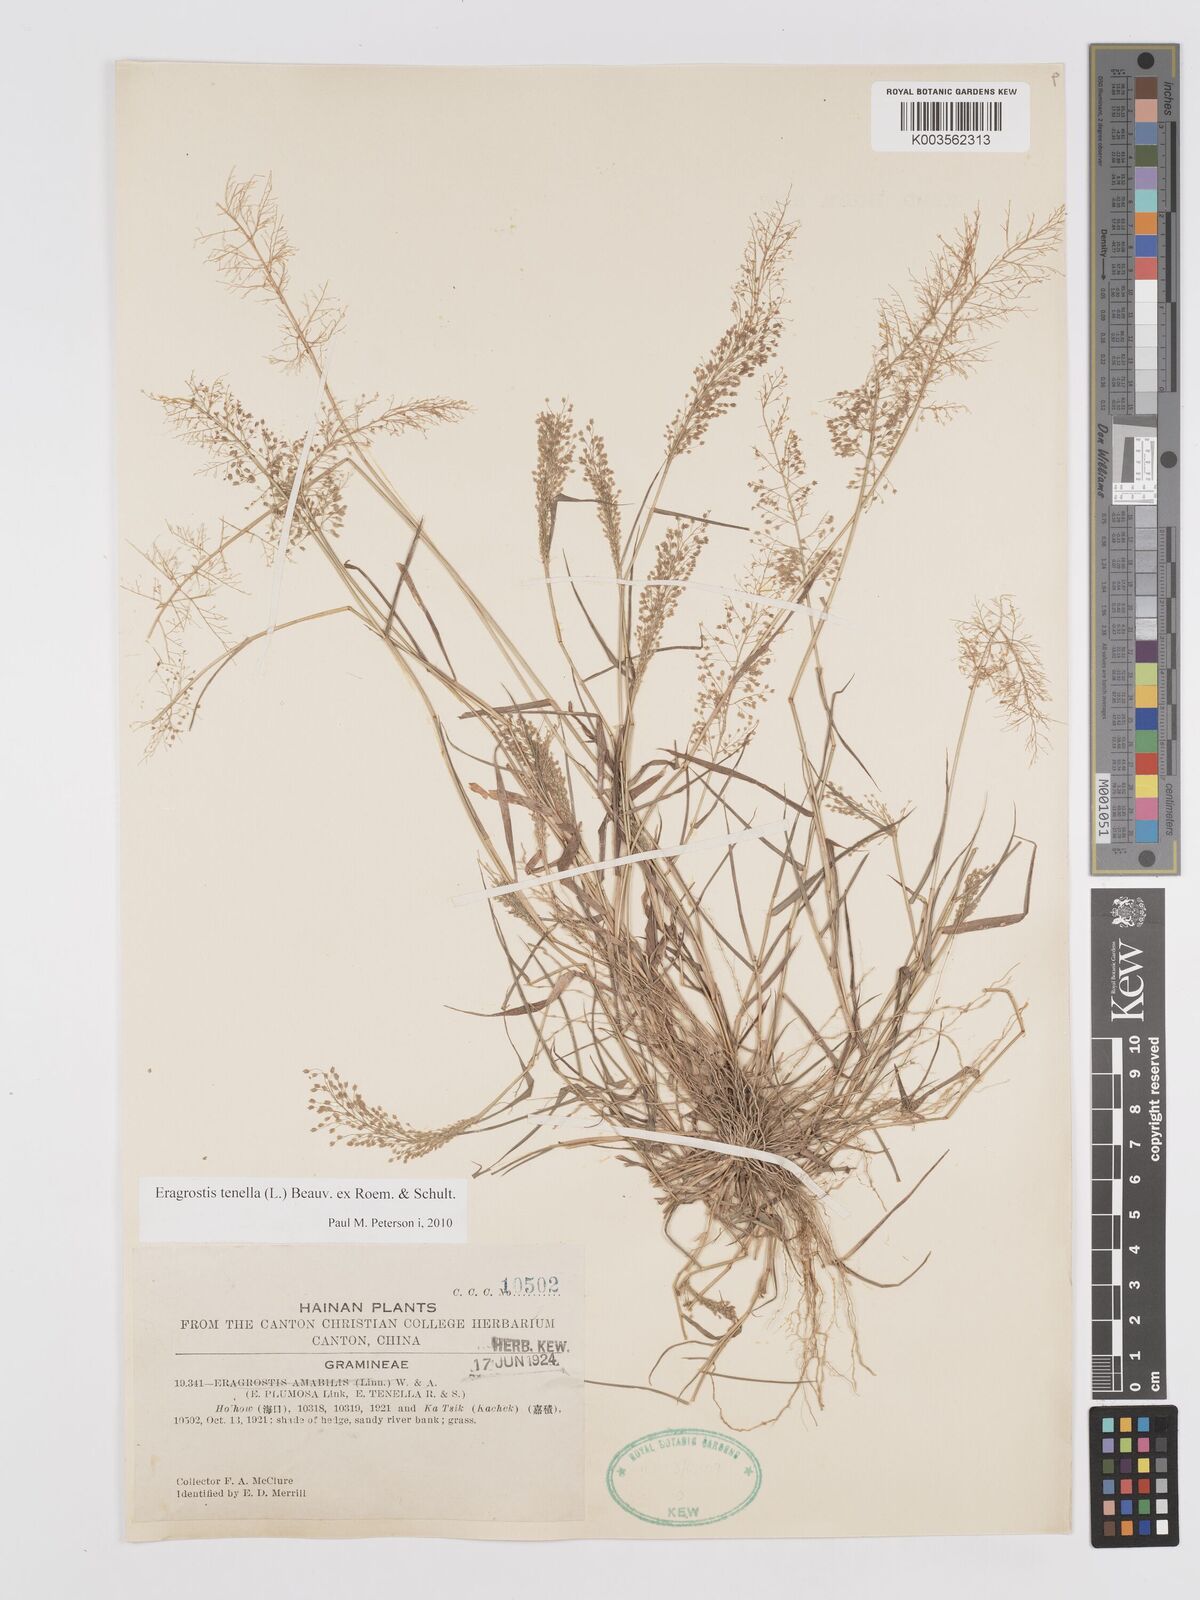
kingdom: Plantae
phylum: Tracheophyta
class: Liliopsida
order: Poales
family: Poaceae
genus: Eragrostis
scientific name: Eragrostis tenella
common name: Japanese lovegrass
